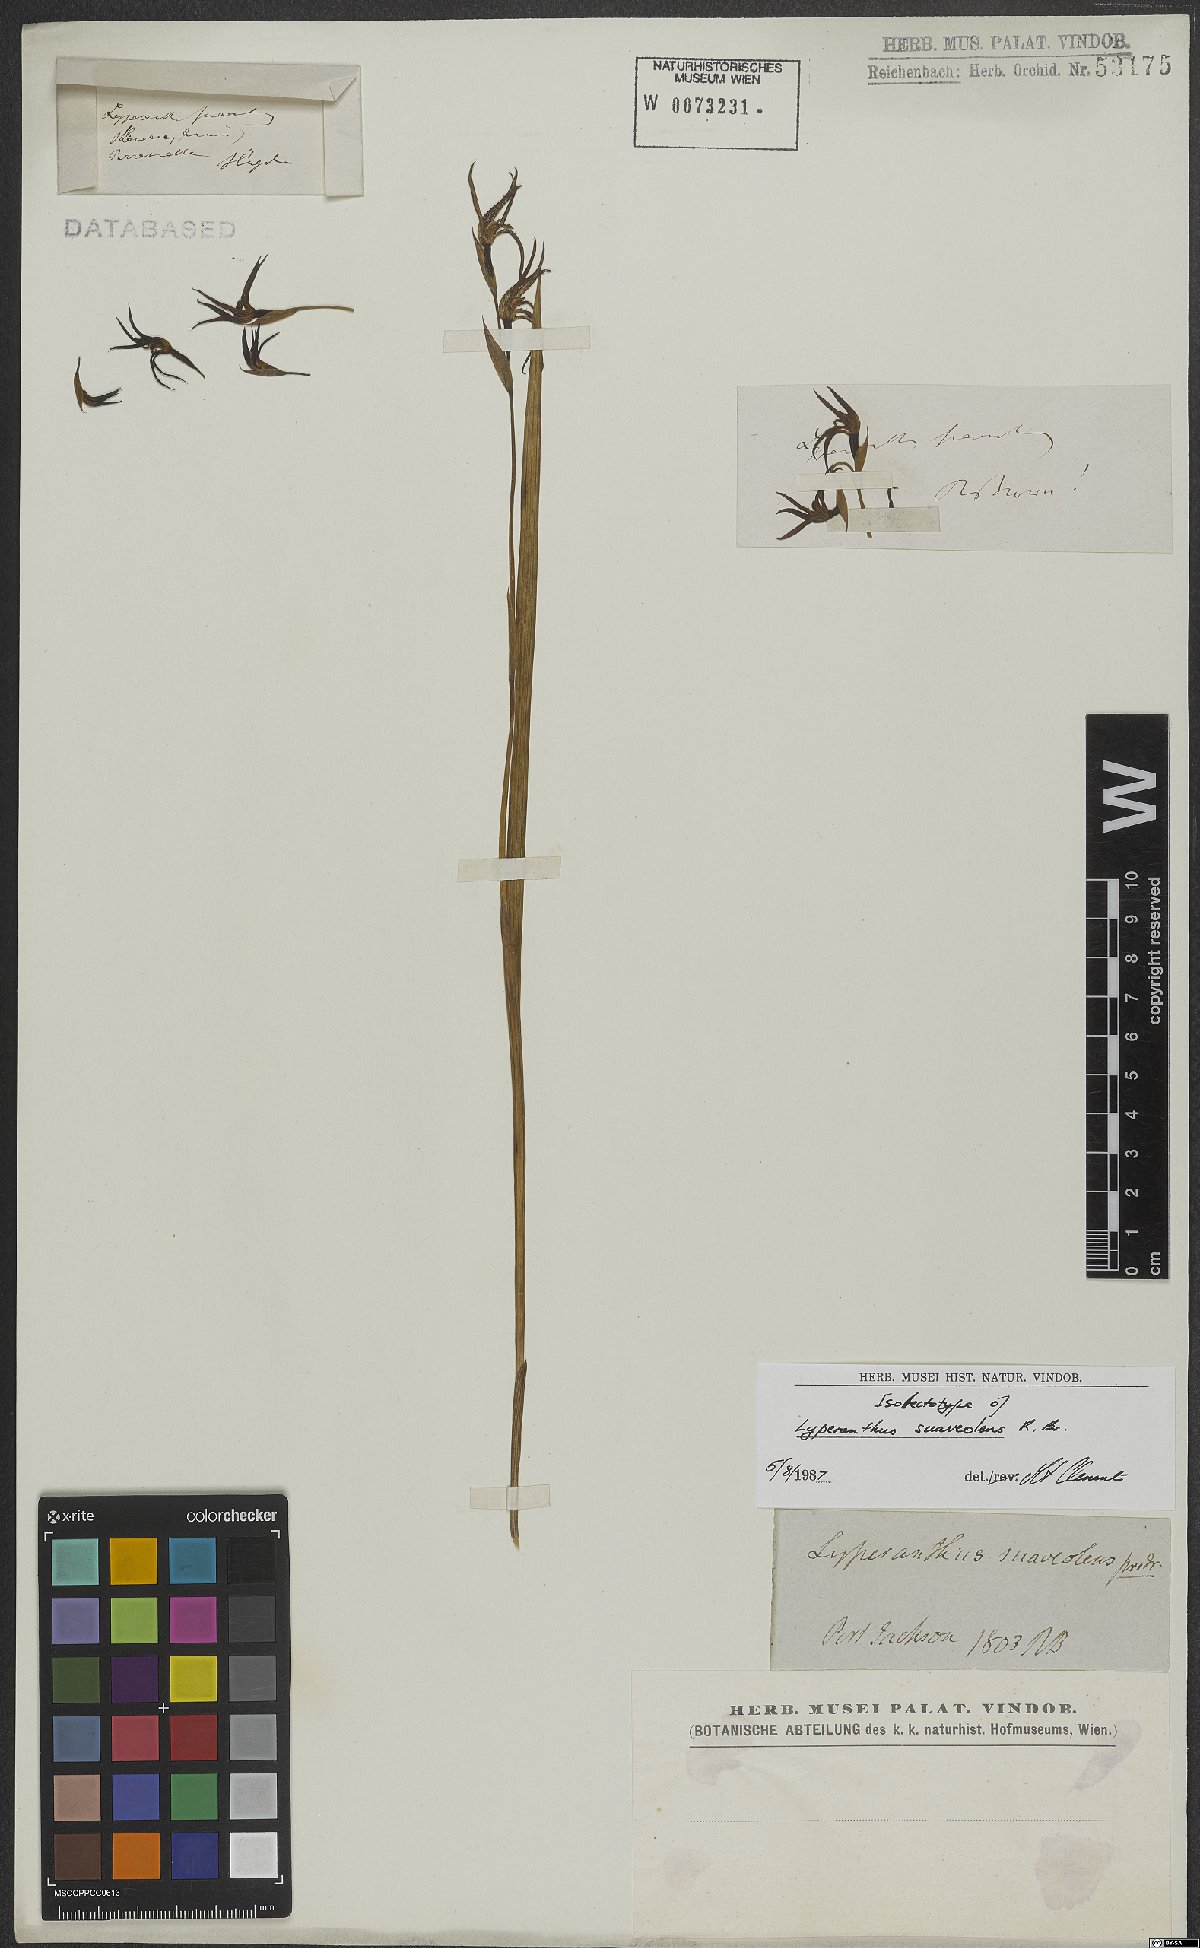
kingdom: Plantae
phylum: Tracheophyta
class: Liliopsida
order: Asparagales
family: Orchidaceae
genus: Lyperanthus
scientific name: Lyperanthus suaveolens
